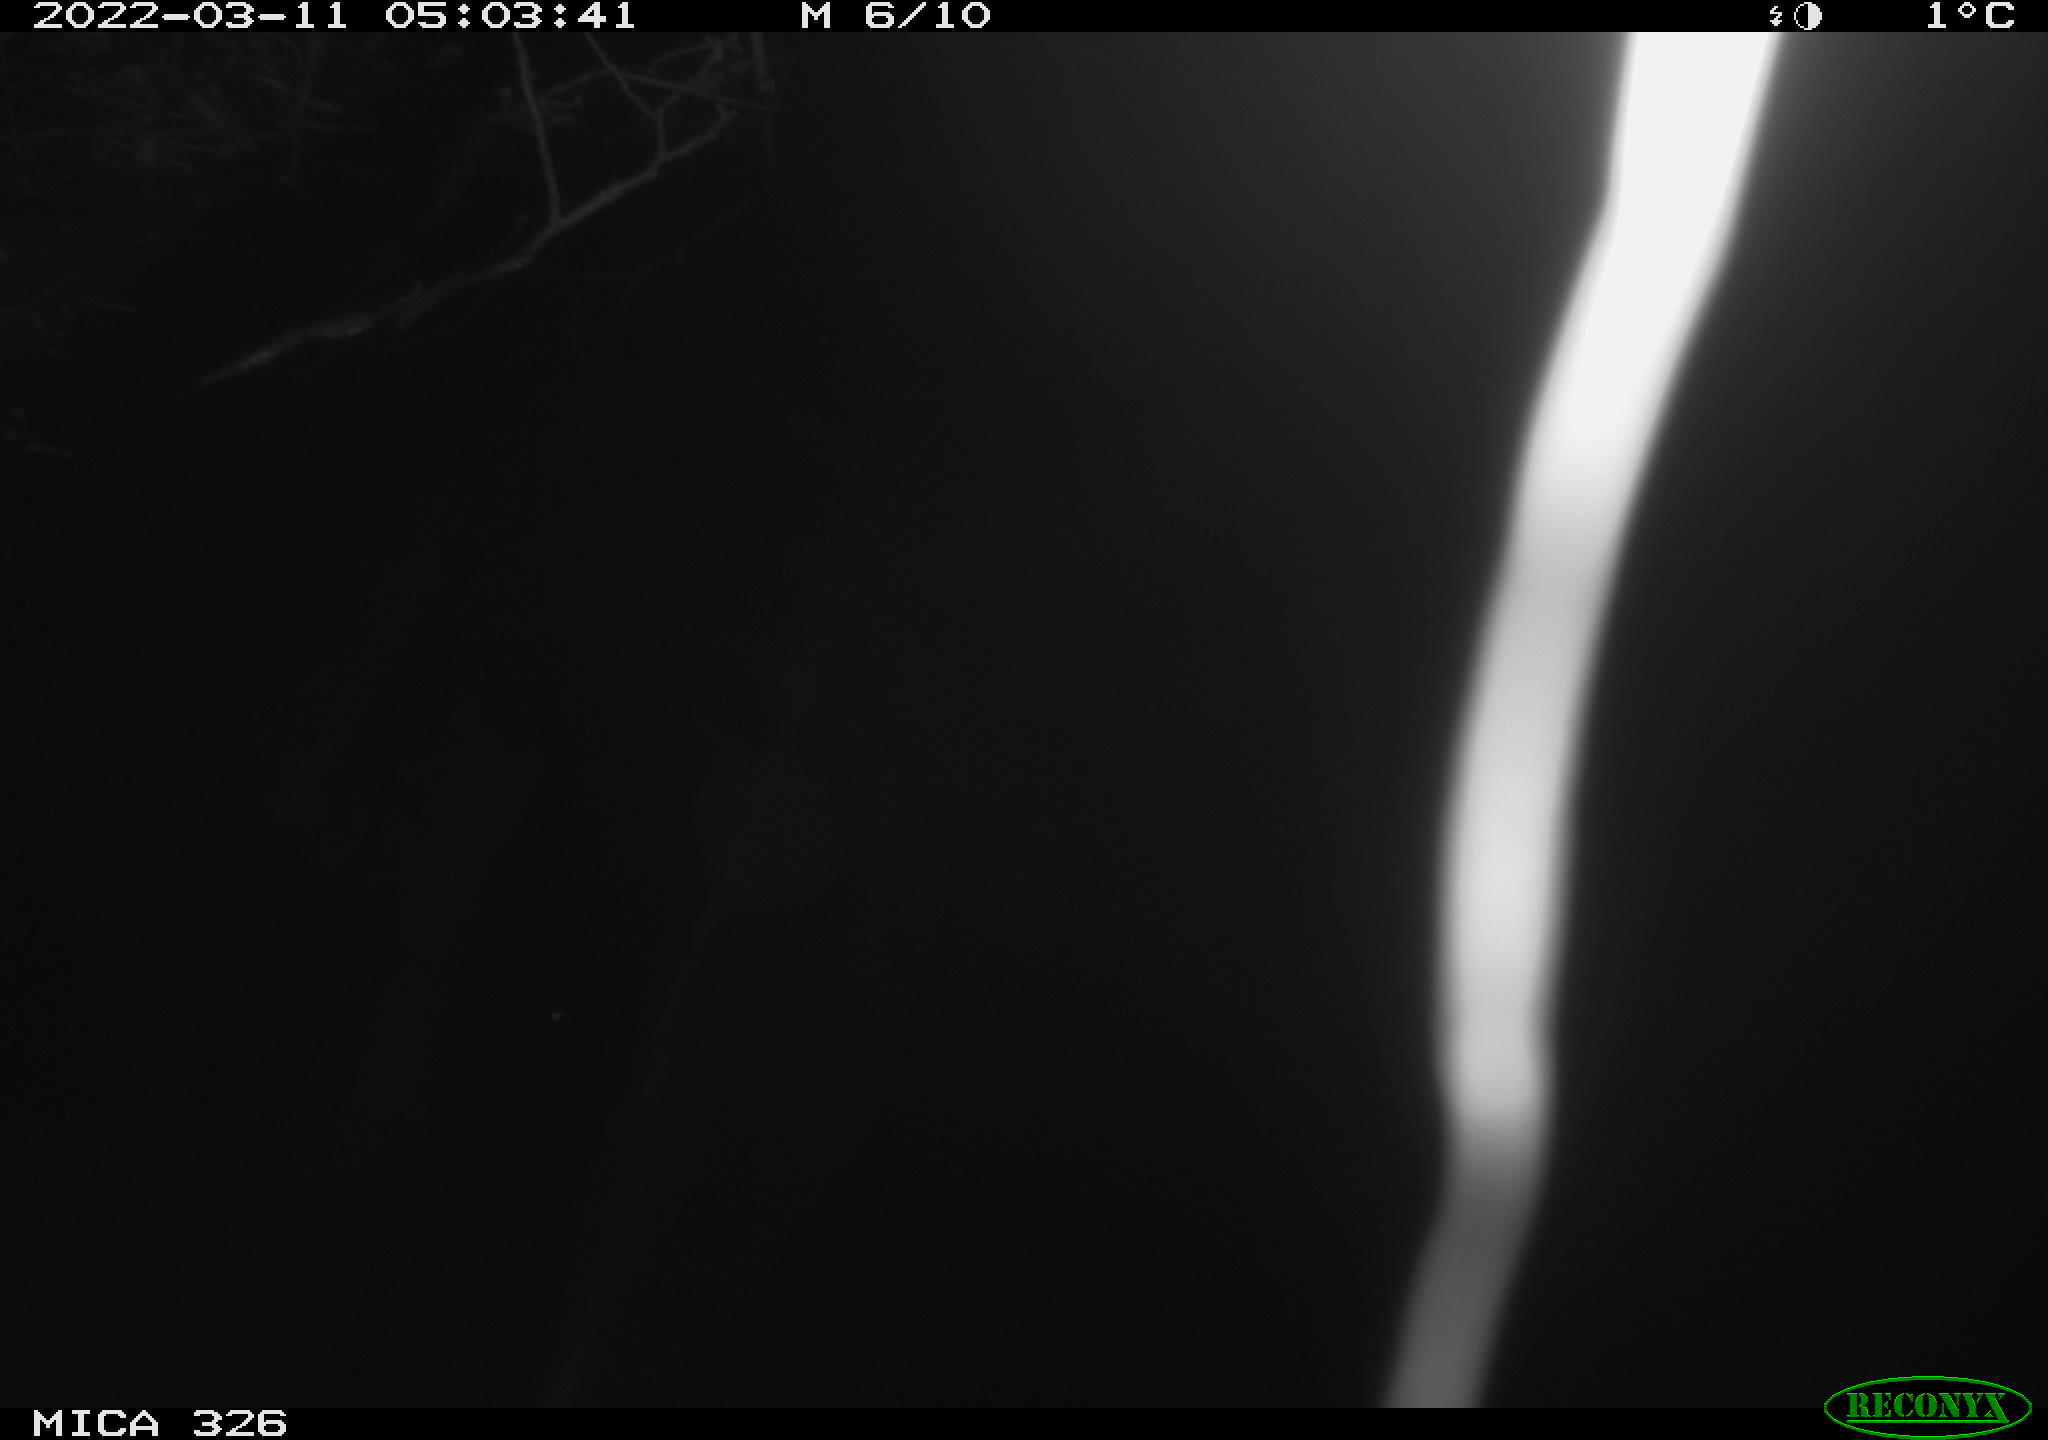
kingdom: Animalia
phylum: Chordata
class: Mammalia
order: Rodentia
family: Muridae
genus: Rattus
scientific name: Rattus norvegicus
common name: Brown rat
